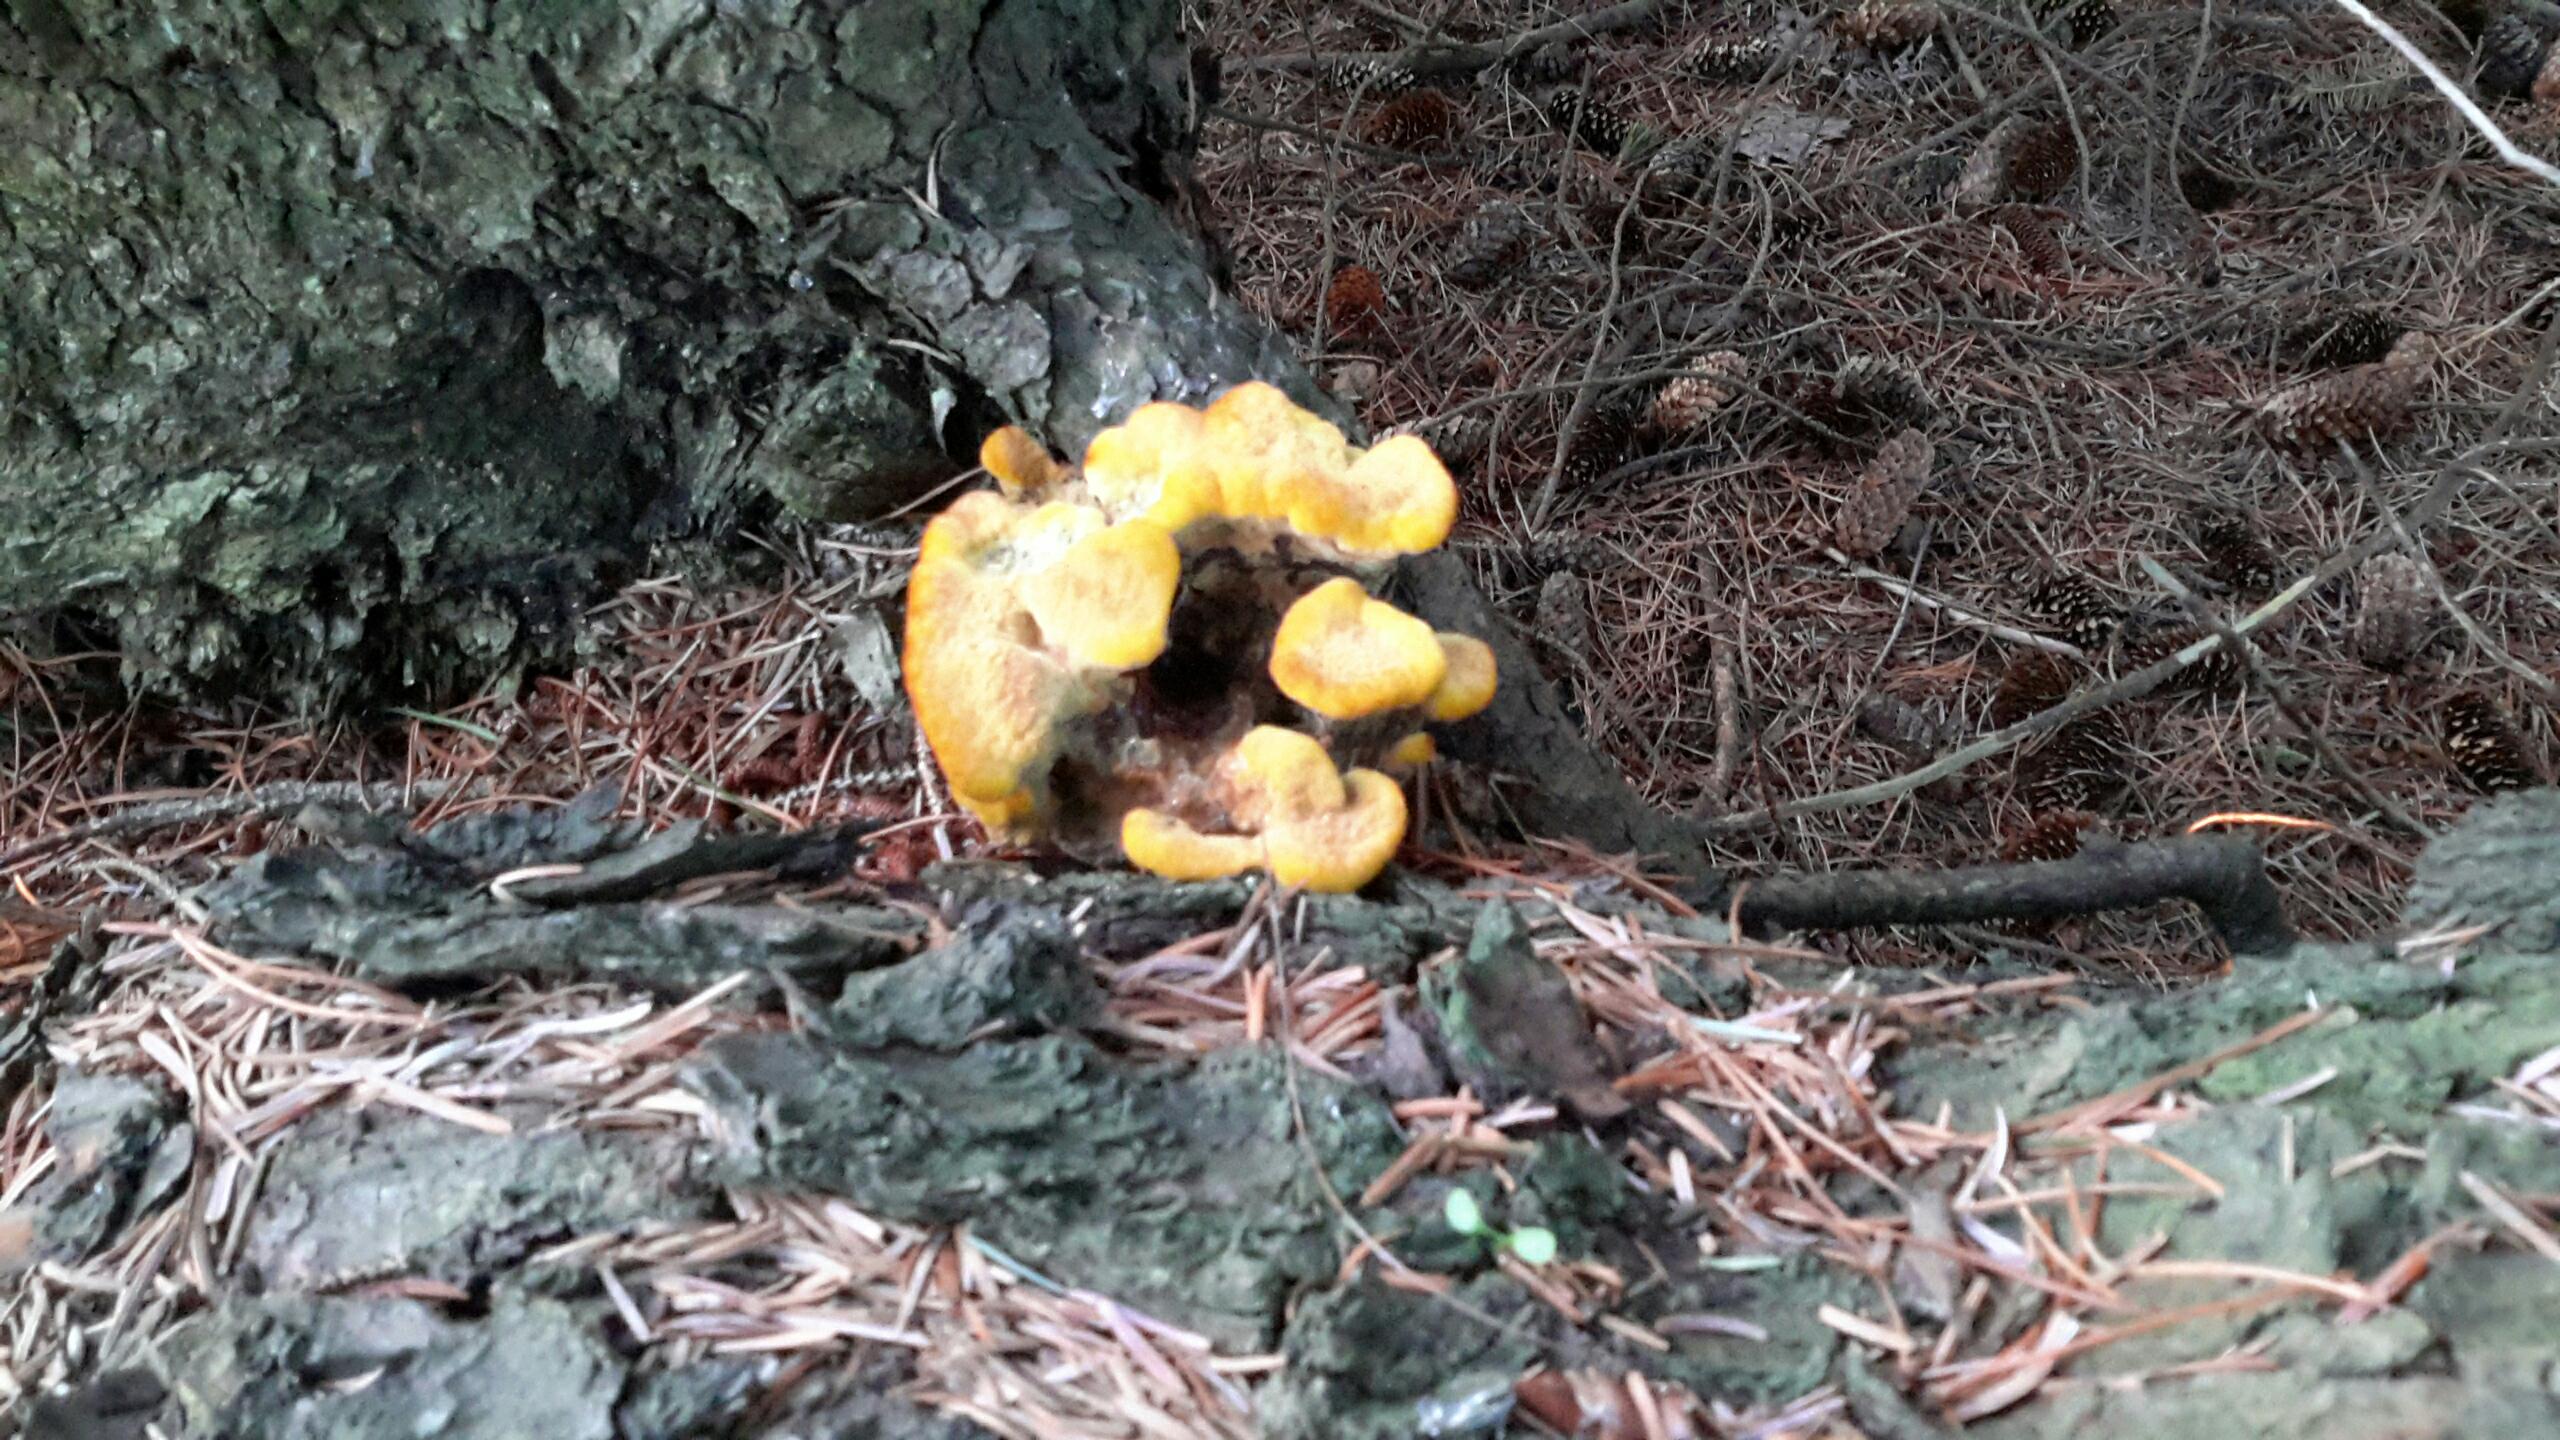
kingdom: Fungi
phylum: Basidiomycota
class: Agaricomycetes
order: Polyporales
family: Laetiporaceae
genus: Phaeolus
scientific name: Phaeolus schweinitzii
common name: brunporesvamp
